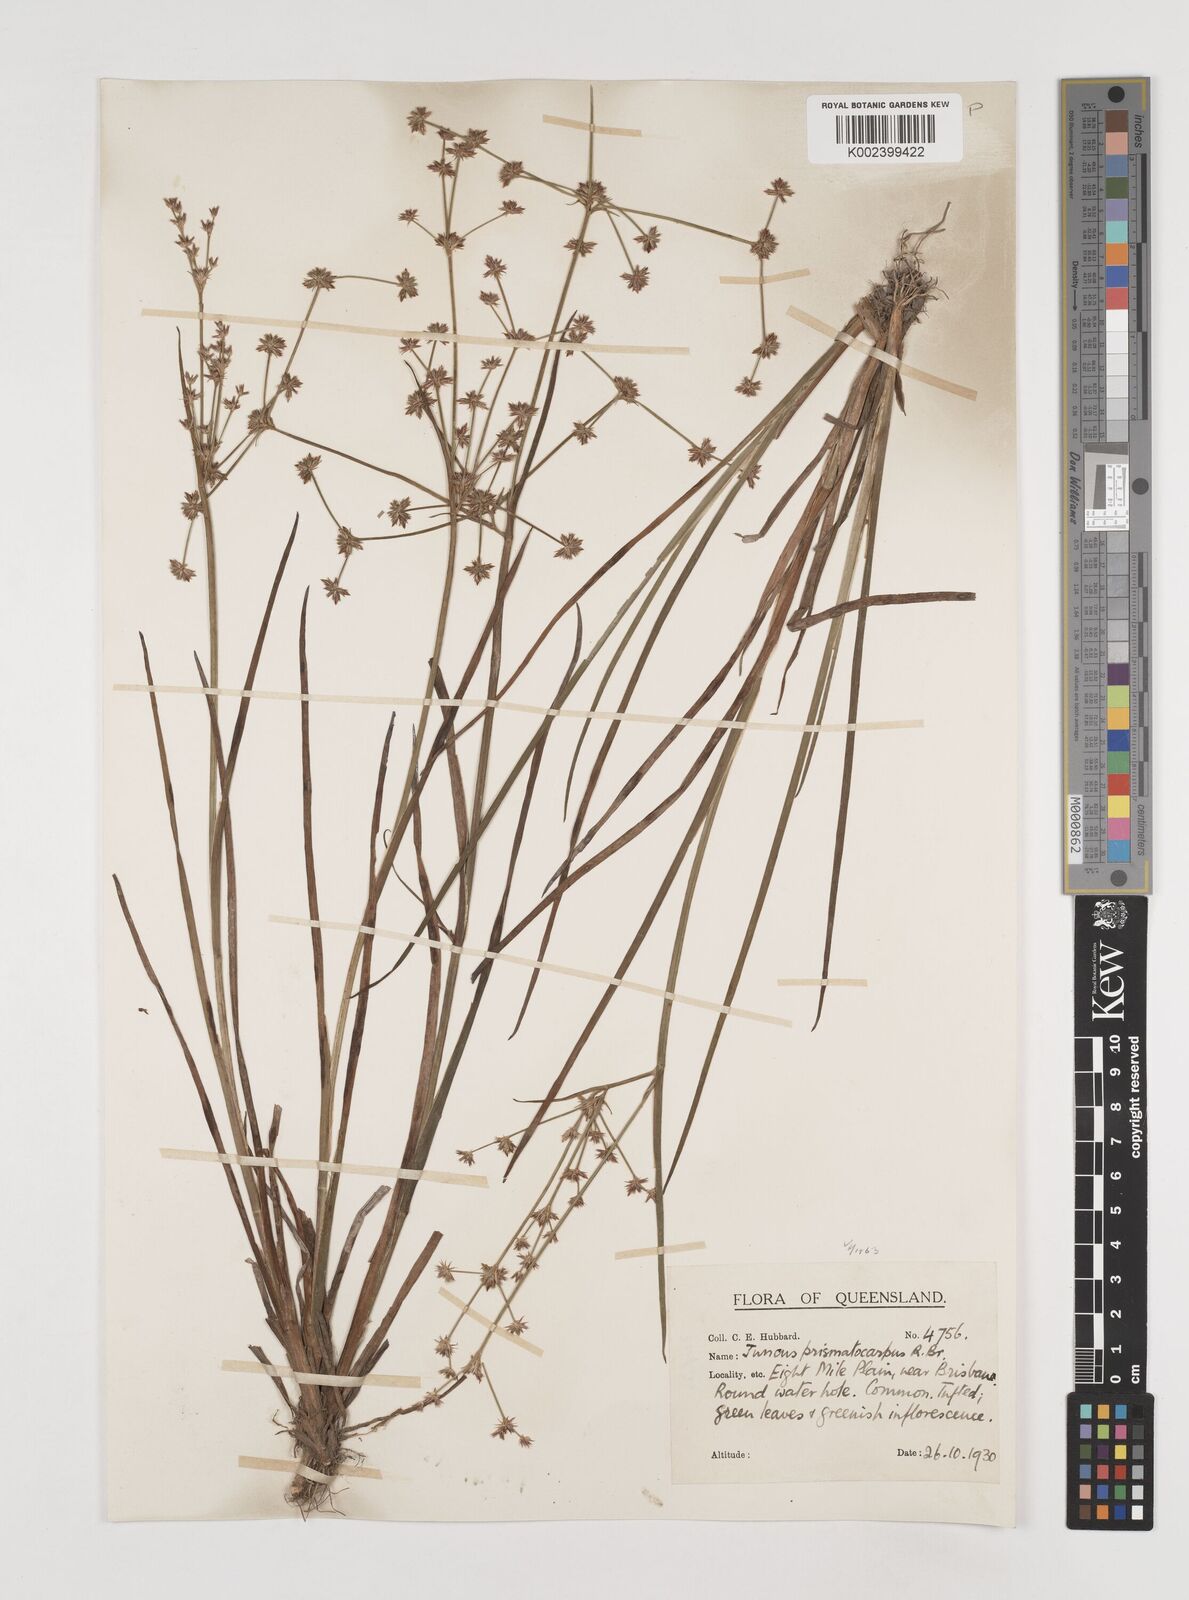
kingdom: Plantae
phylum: Tracheophyta
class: Liliopsida
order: Poales
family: Juncaceae
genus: Juncus
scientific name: Juncus prismatocarpus
